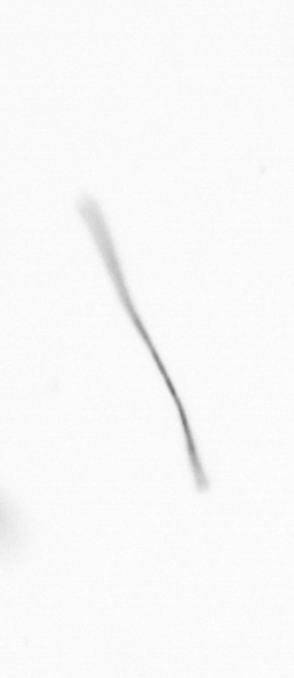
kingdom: Chromista
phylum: Ochrophyta
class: Bacillariophyceae
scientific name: Bacillariophyceae
